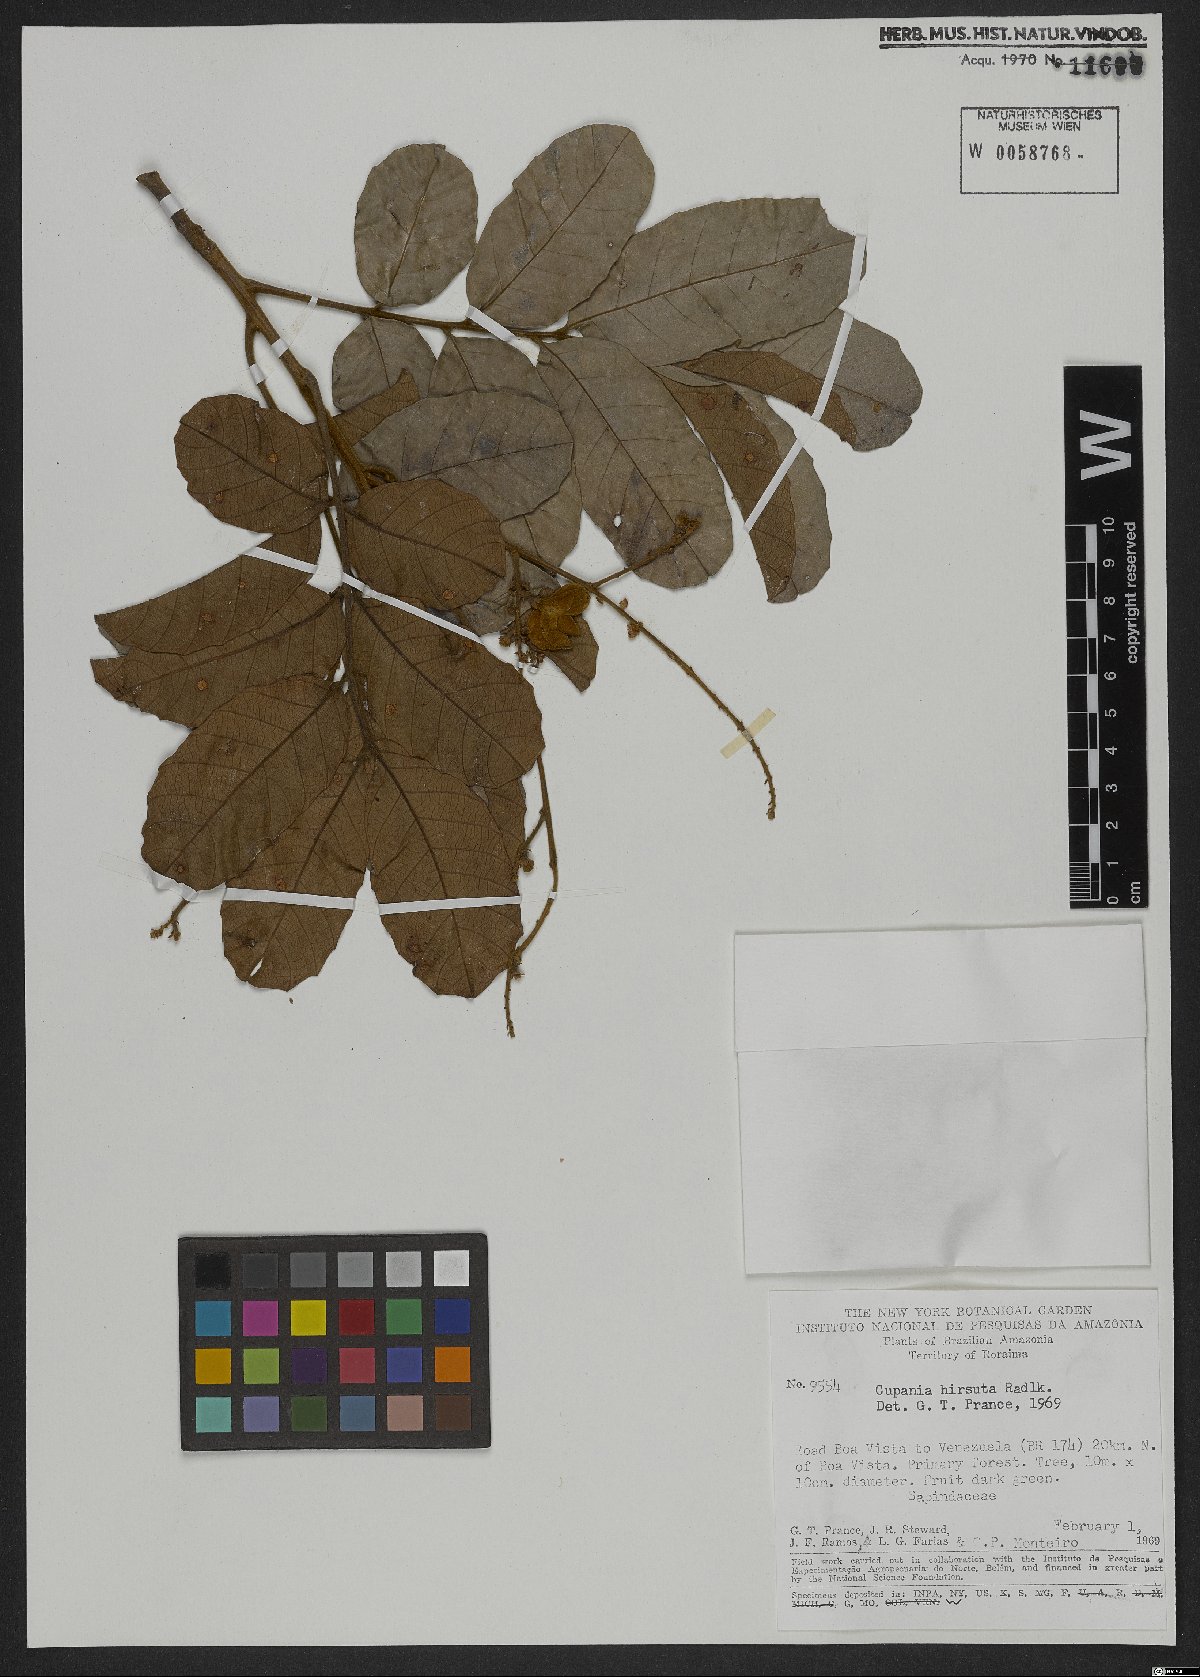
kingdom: Plantae
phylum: Tracheophyta
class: Magnoliopsida
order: Sapindales
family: Sapindaceae
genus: Cupania
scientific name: Cupania hirsuta
